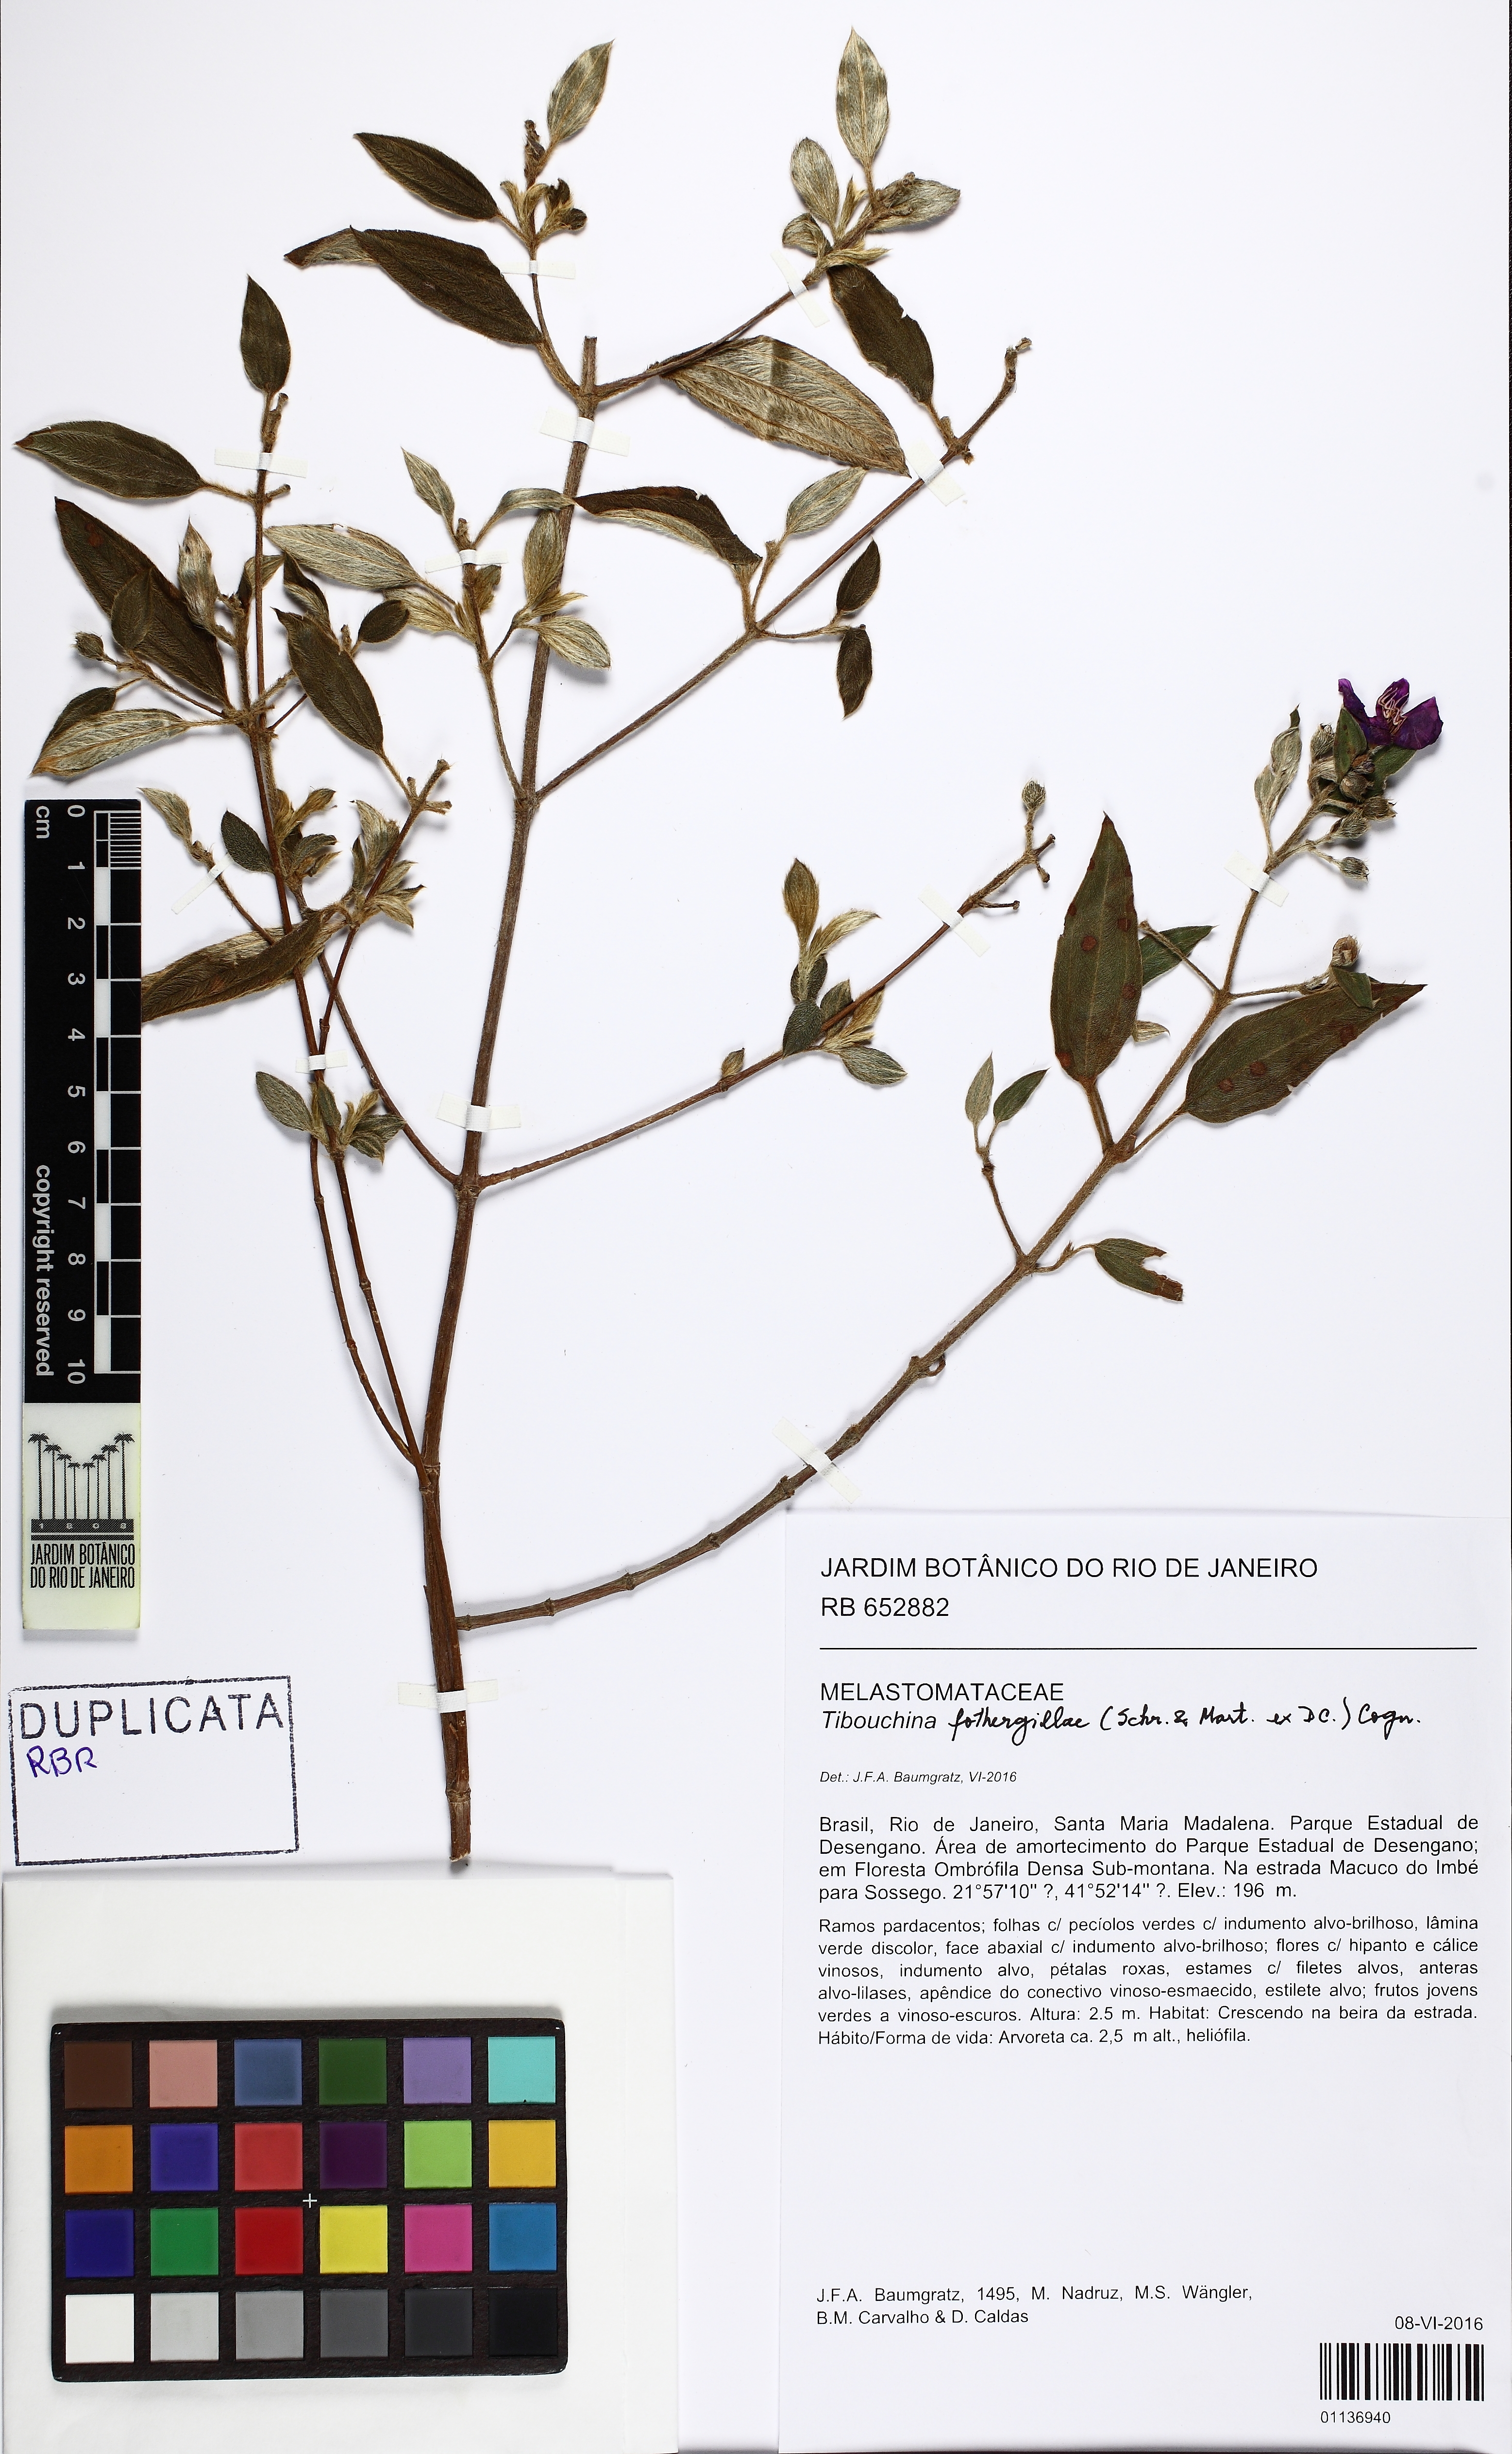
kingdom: Plantae
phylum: Tracheophyta
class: Magnoliopsida
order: Myrtales
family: Melastomataceae
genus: Pleroma
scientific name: Pleroma fothergillae
